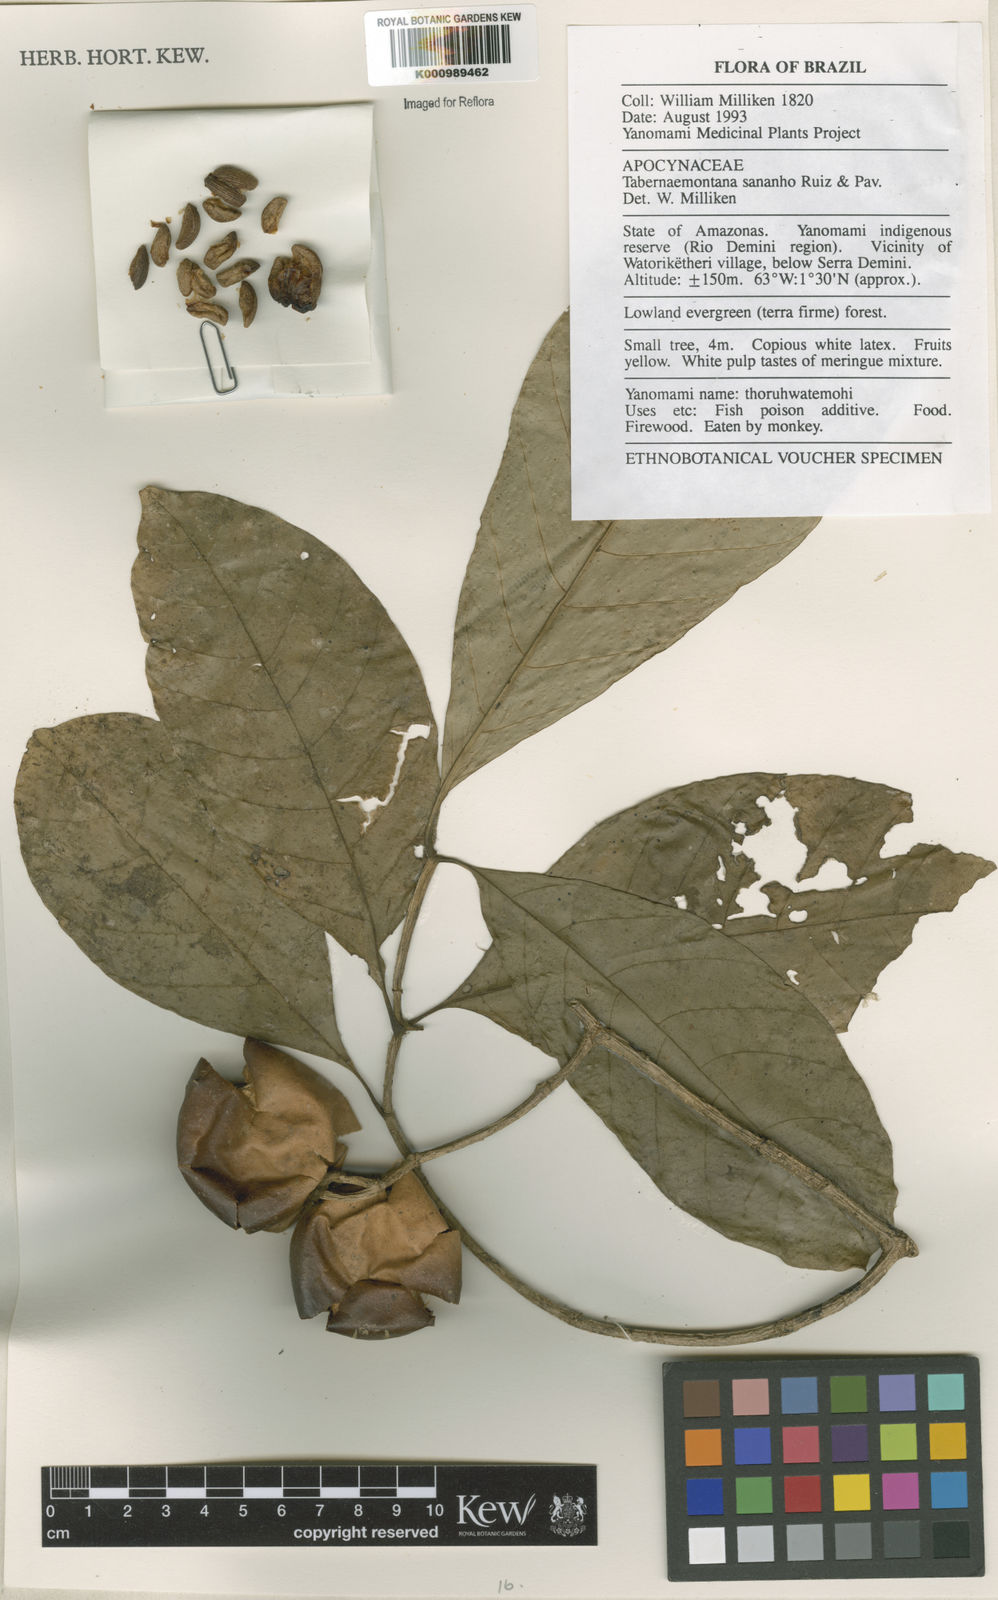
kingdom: Plantae
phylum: Tracheophyta
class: Magnoliopsida
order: Gentianales
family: Apocynaceae
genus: Tabernaemontana
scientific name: Tabernaemontana sananho
